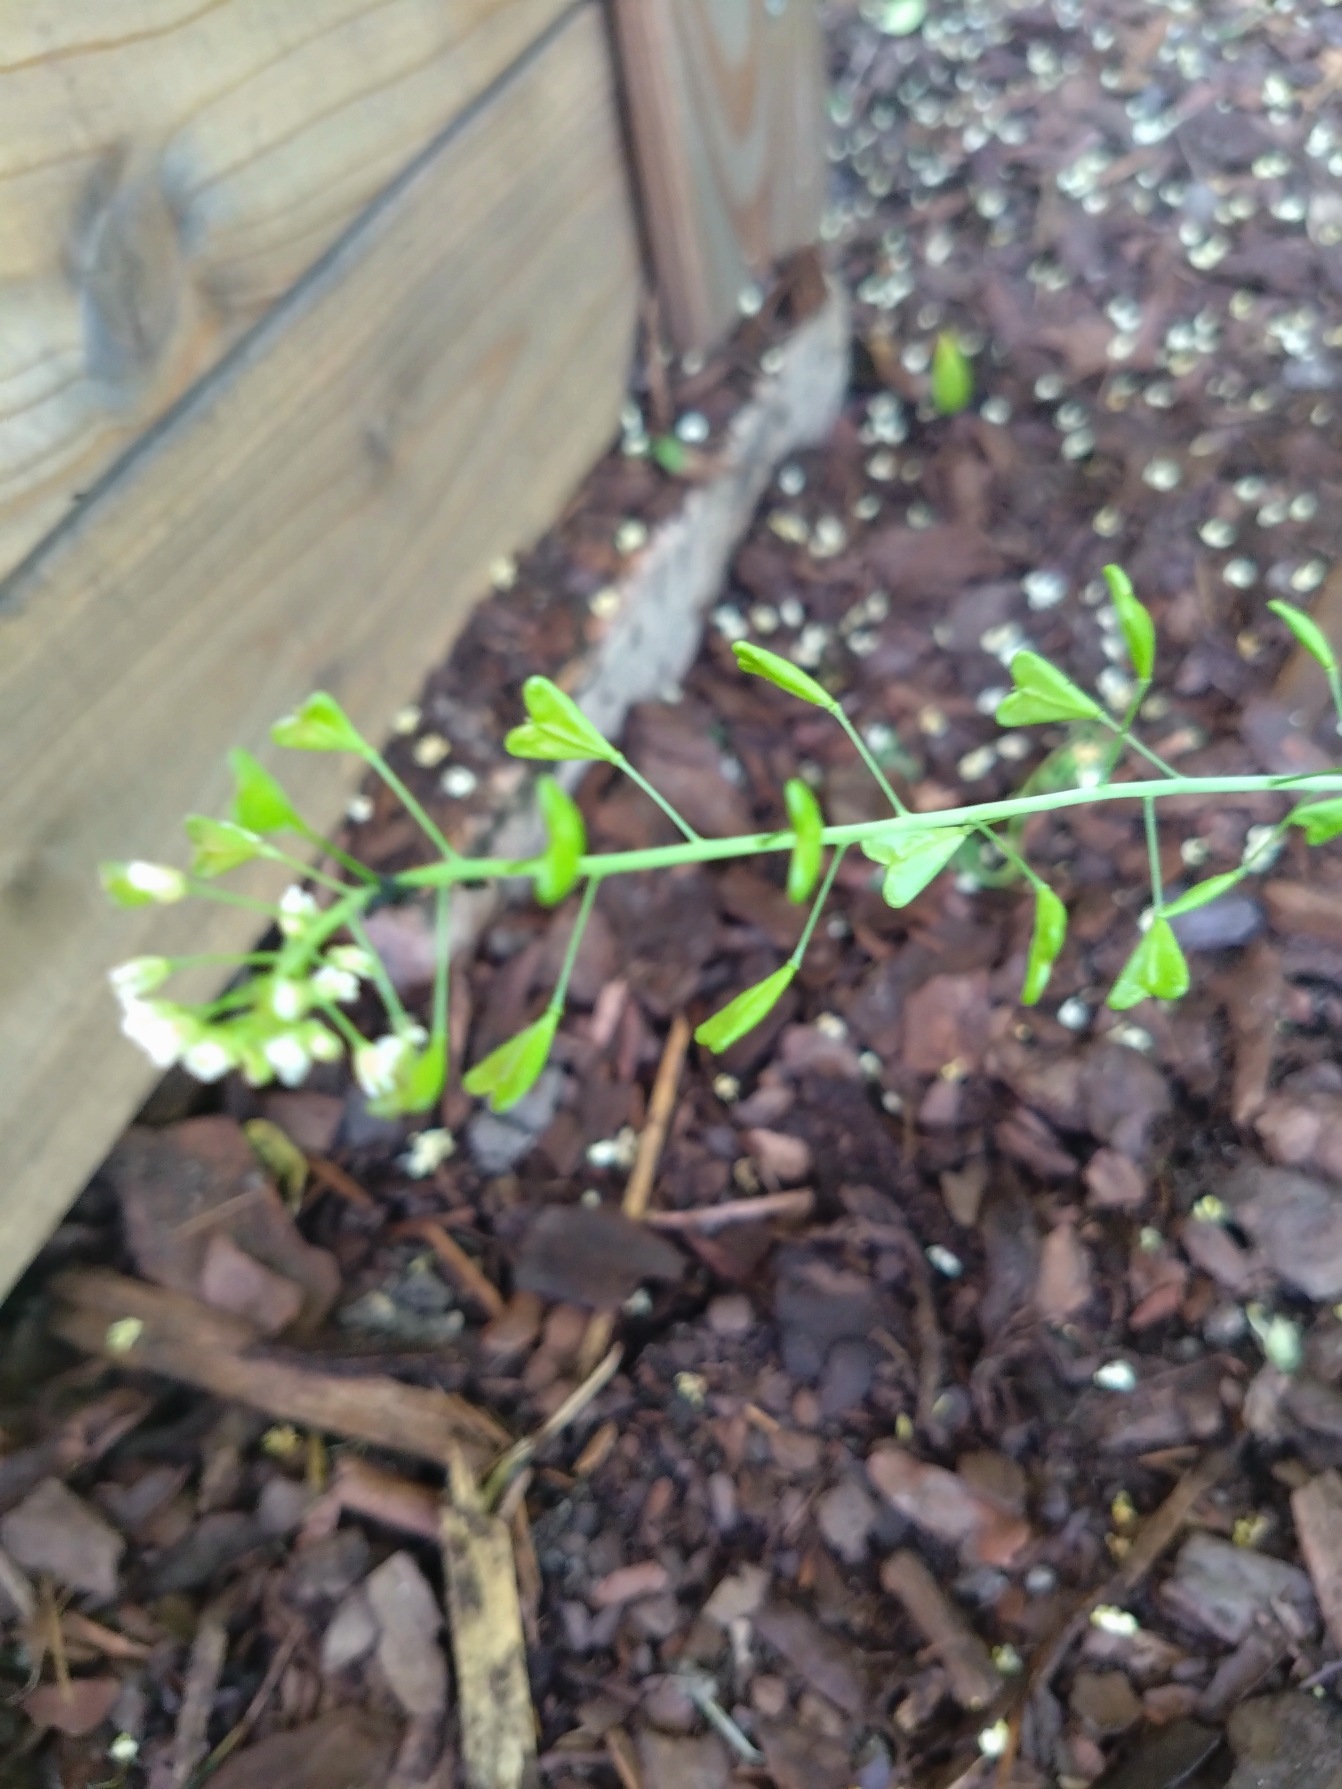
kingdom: Plantae
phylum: Tracheophyta
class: Magnoliopsida
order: Brassicales
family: Brassicaceae
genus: Capsella
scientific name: Capsella bursa-pastoris
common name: Hyrdetaske
